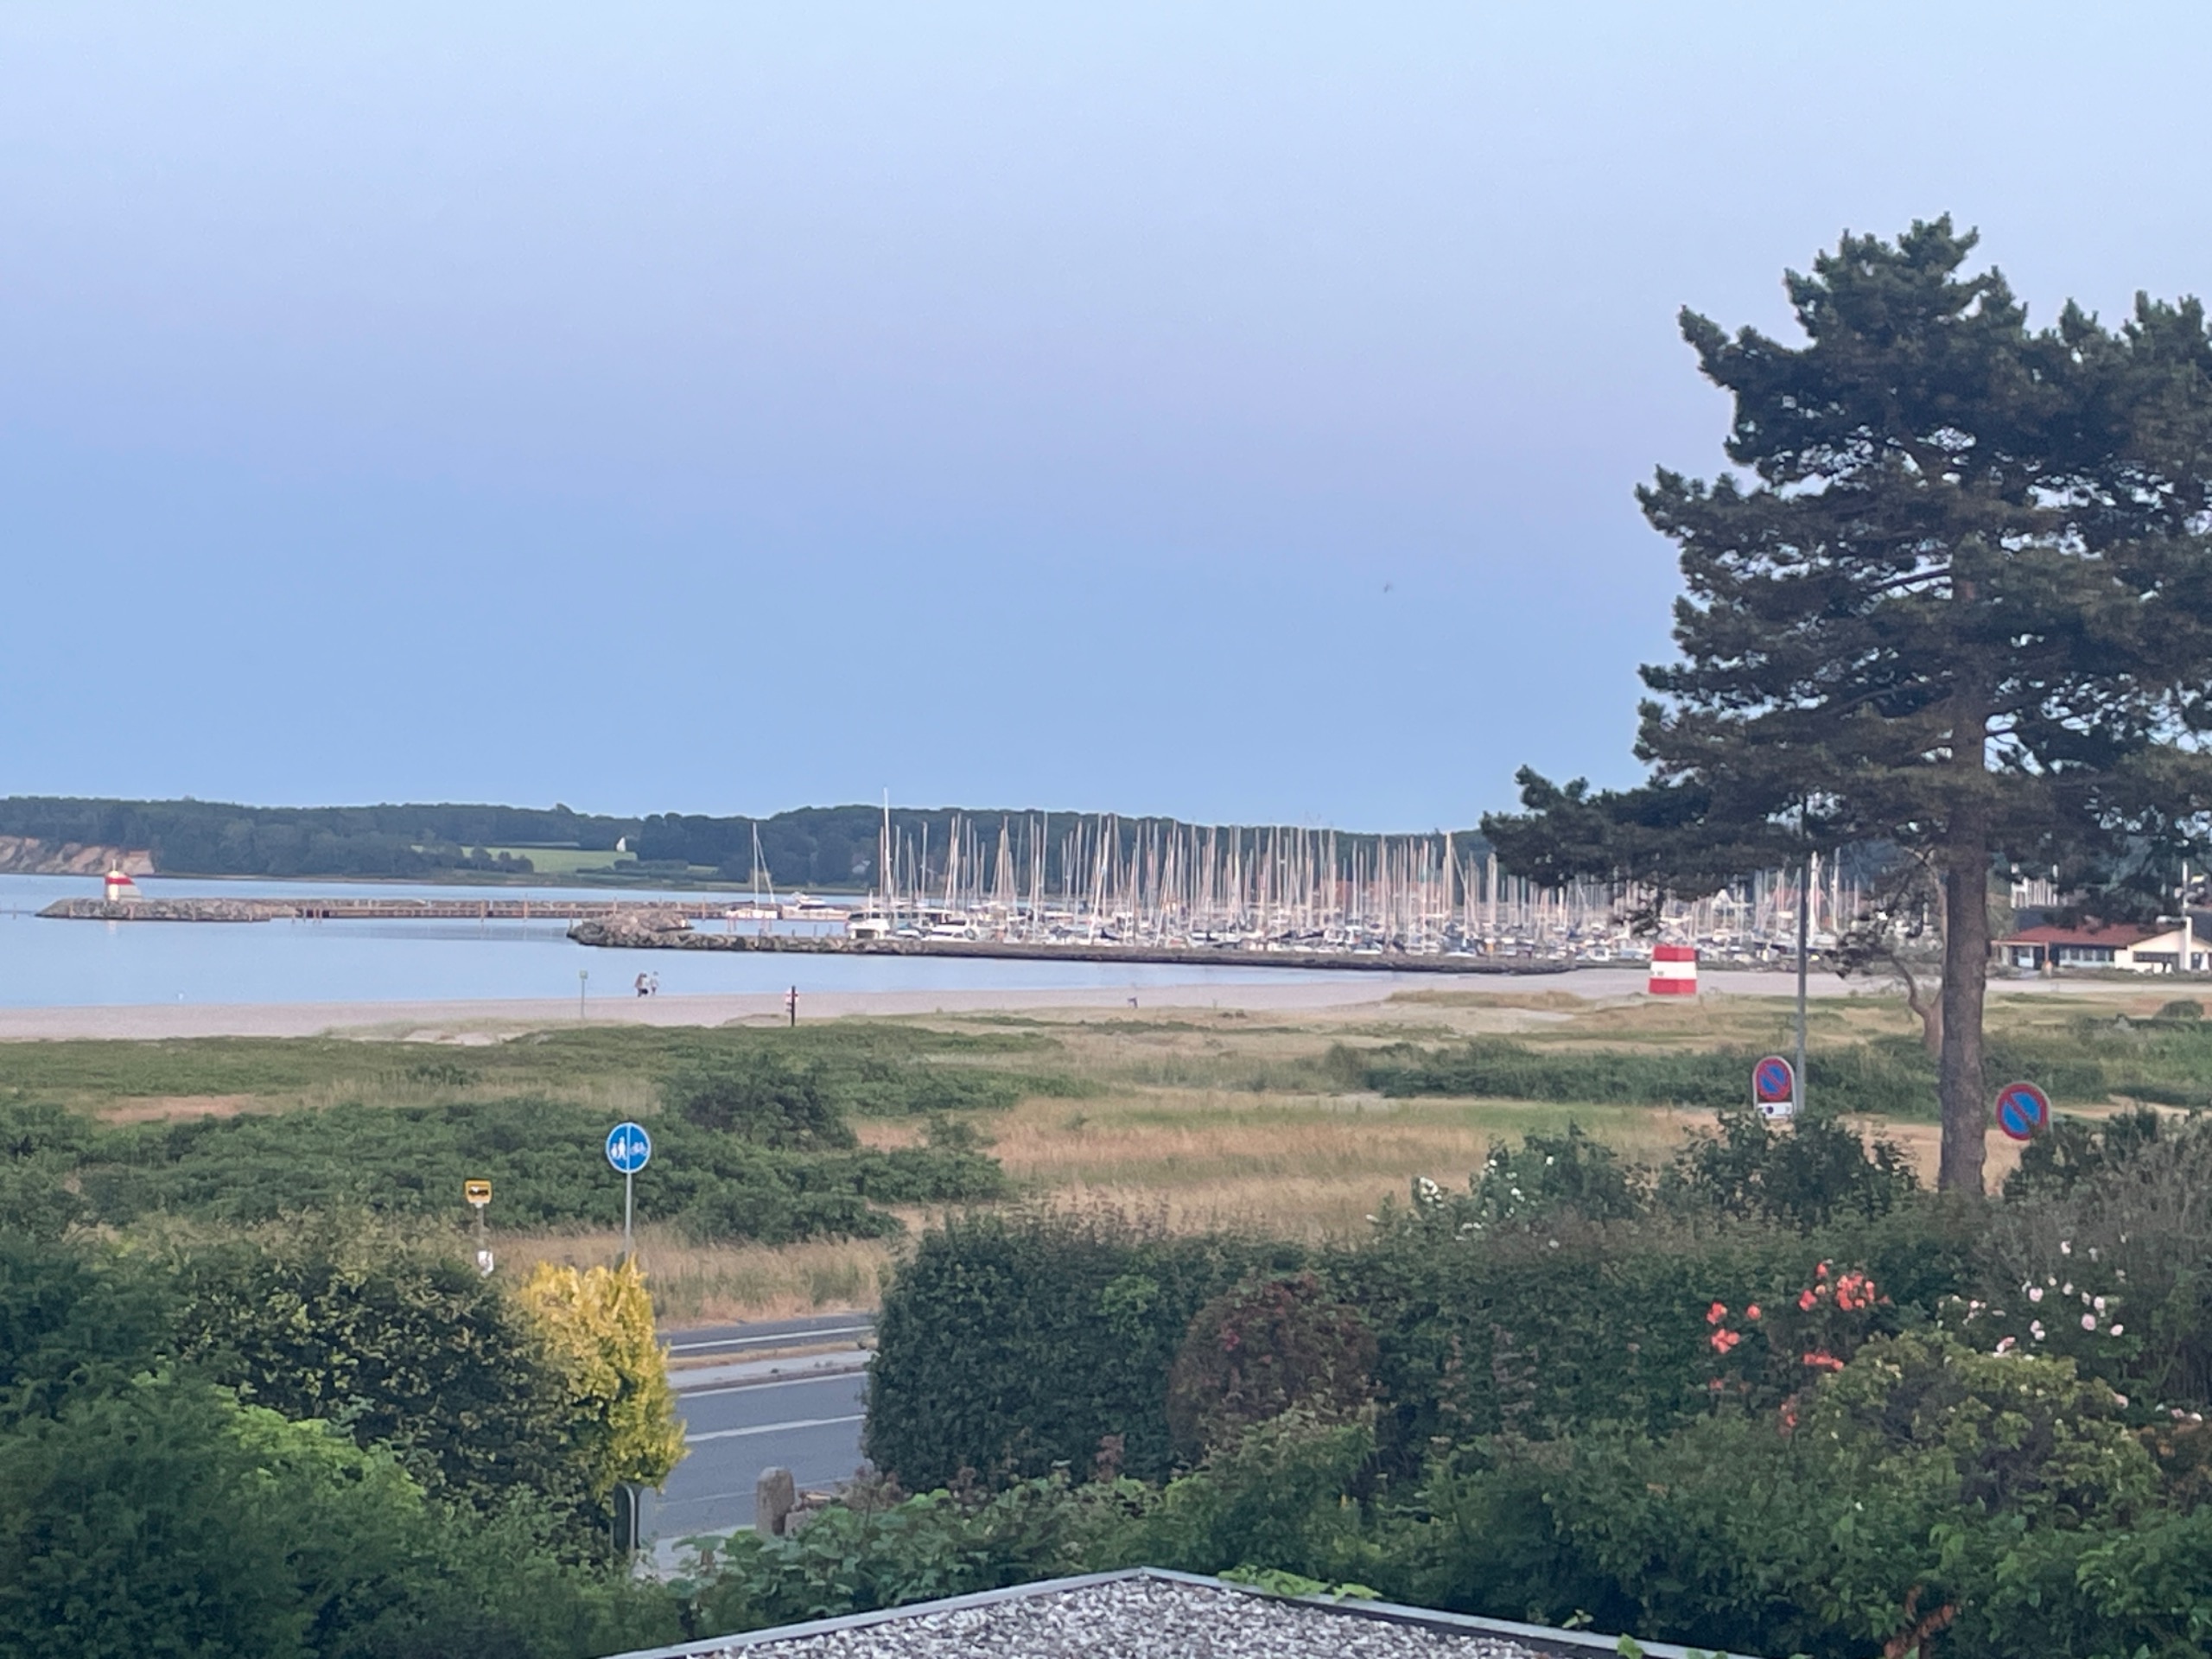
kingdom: Plantae
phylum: Tracheophyta
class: Magnoliopsida
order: Rosales
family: Rosaceae
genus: Rosa
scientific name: Rosa rugosa
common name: Rynket rose
